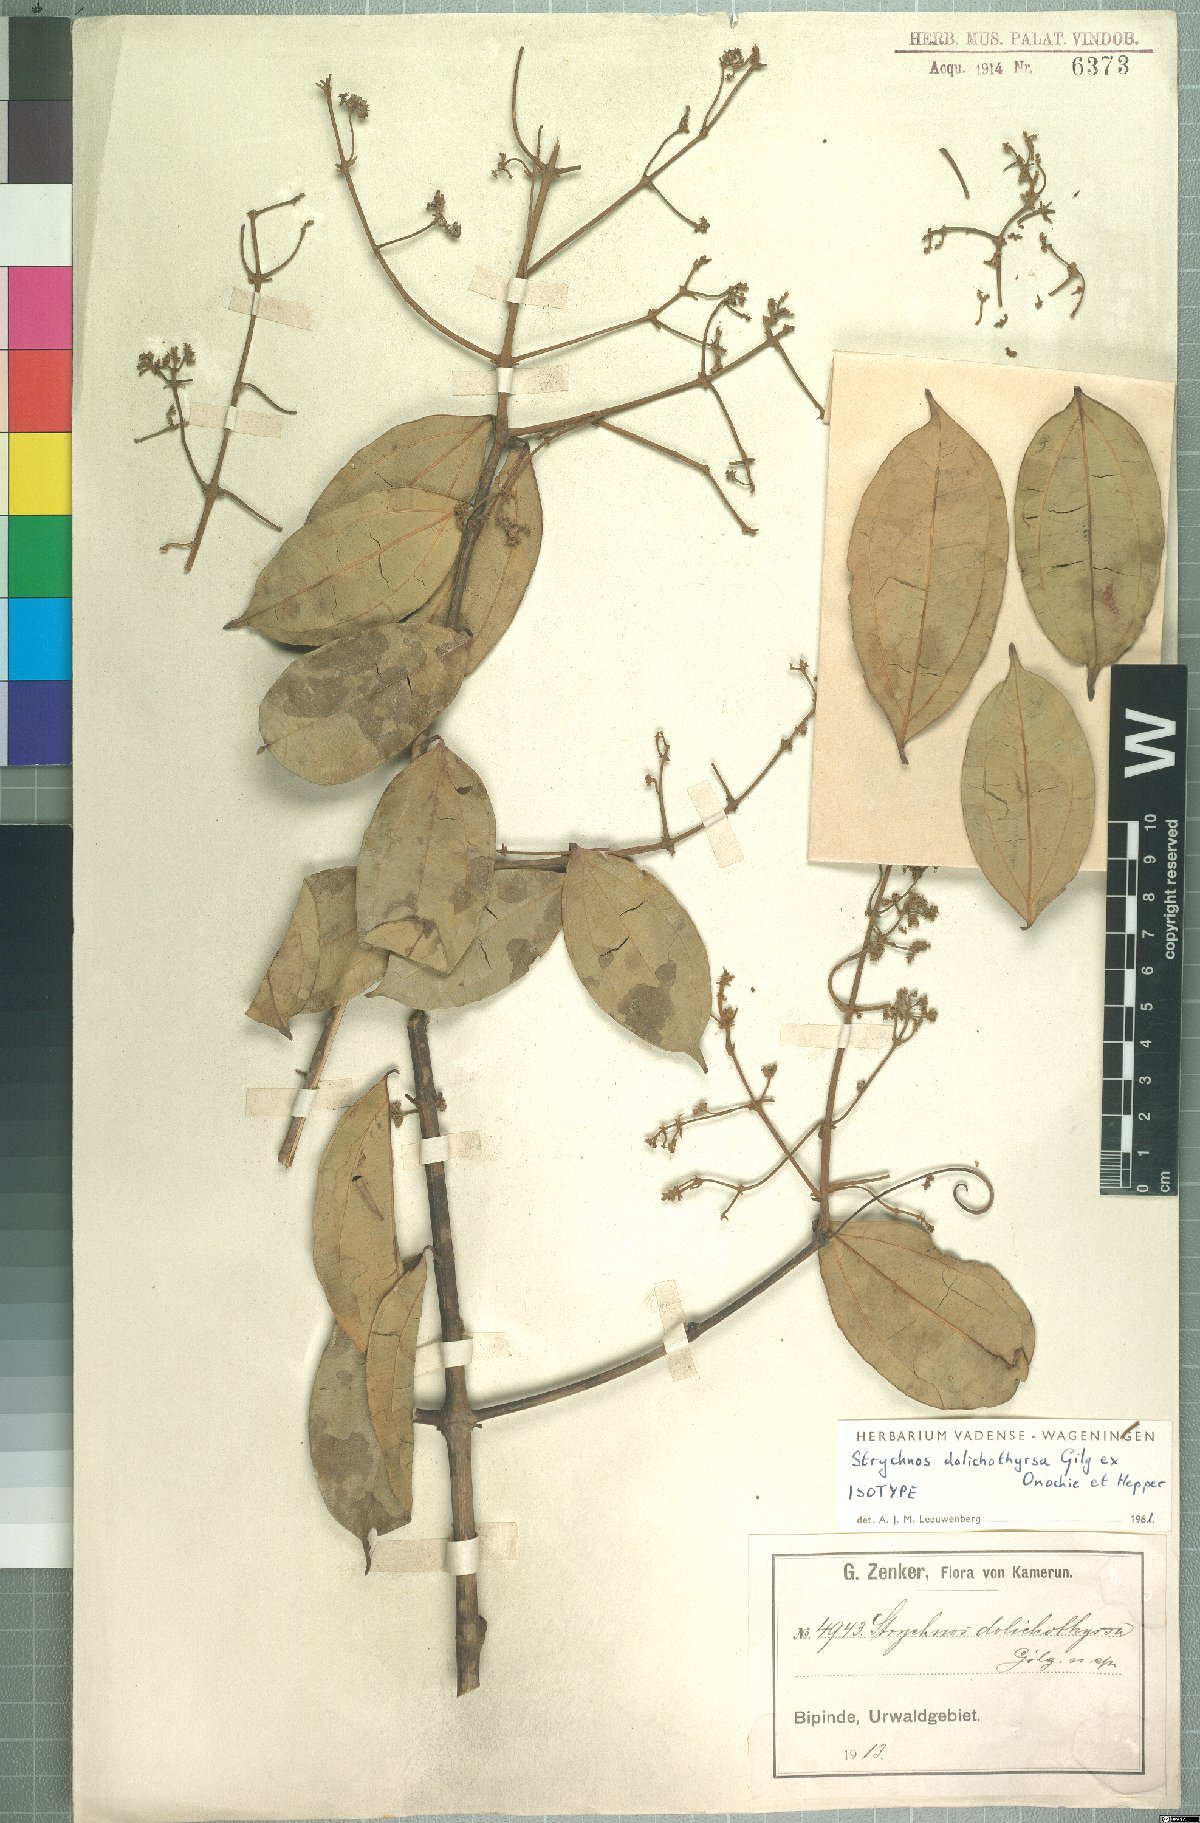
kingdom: Plantae
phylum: Tracheophyta
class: Magnoliopsida
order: Gentianales
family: Loganiaceae
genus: Strychnos
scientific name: Strychnos dolichothyrsa
